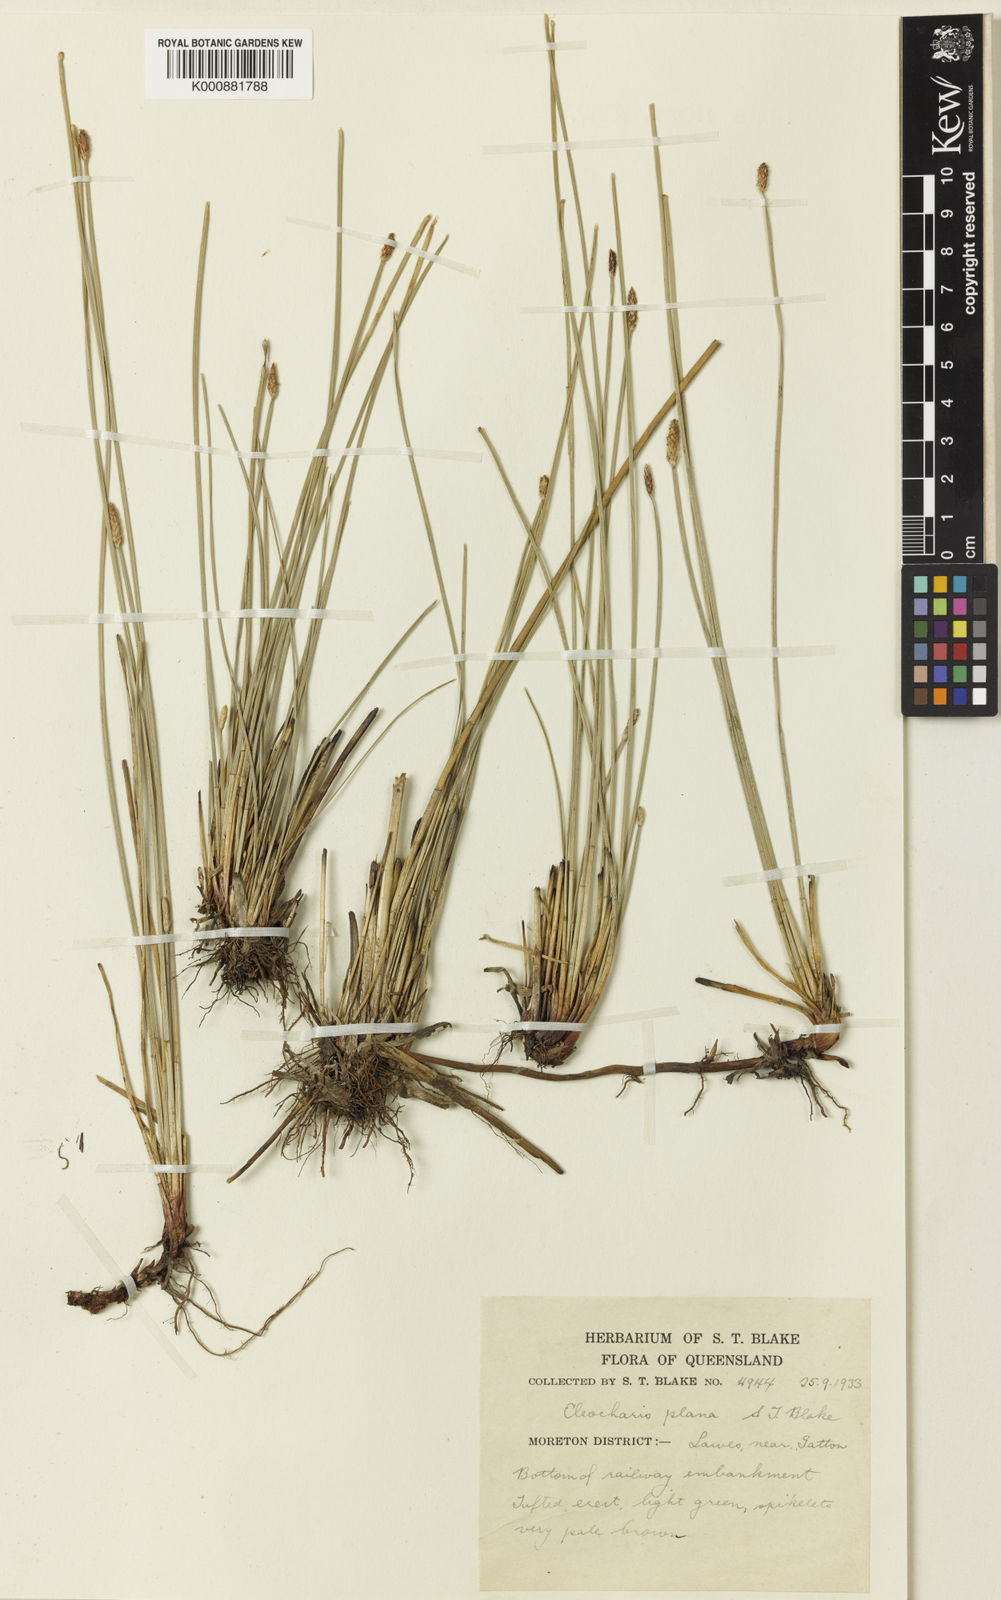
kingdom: Plantae
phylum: Tracheophyta
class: Liliopsida
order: Poales
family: Cyperaceae
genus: Eleocharis
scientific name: Eleocharis plana
